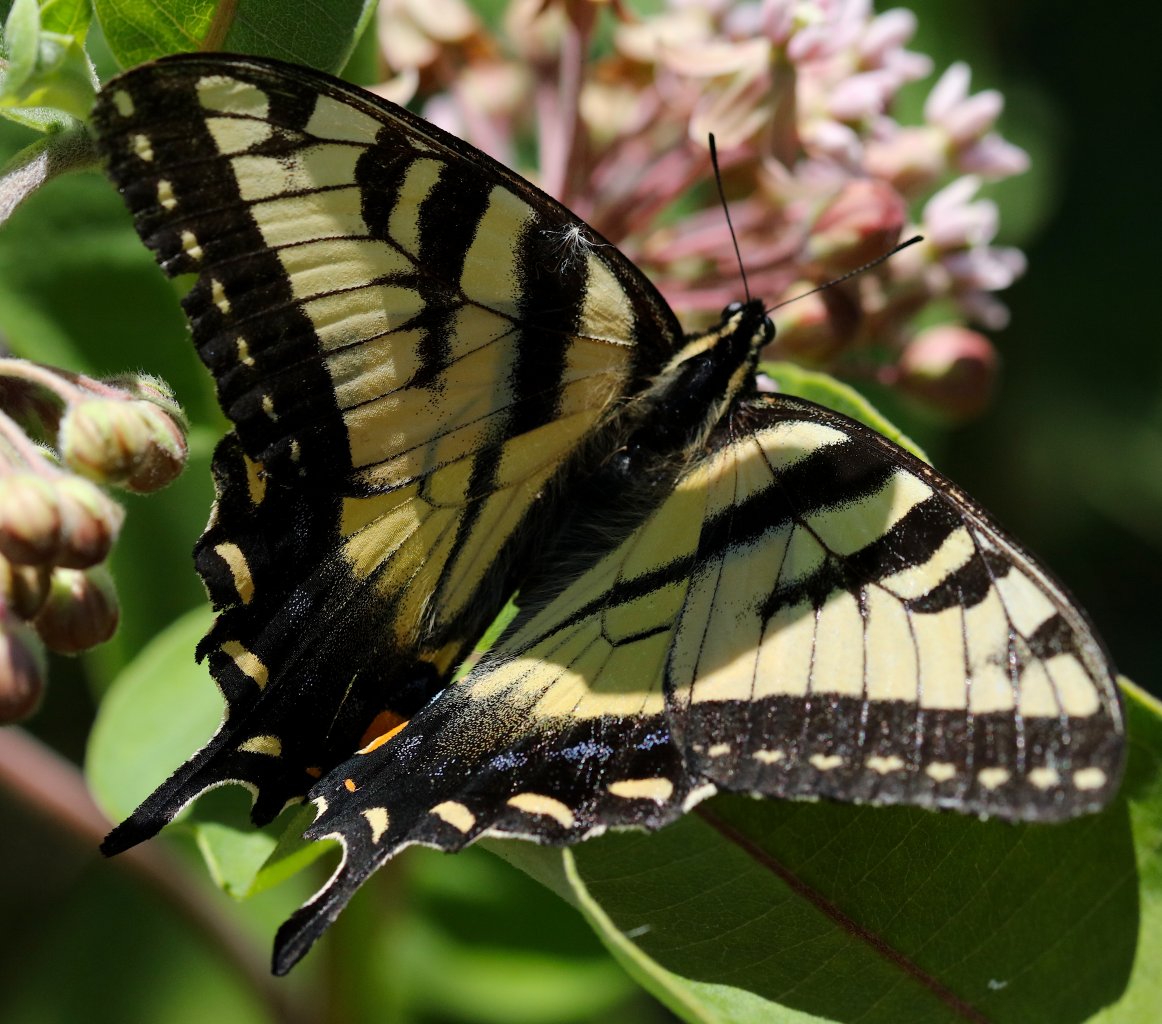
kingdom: Animalia
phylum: Arthropoda
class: Insecta
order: Lepidoptera
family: Papilionidae
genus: Pterourus
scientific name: Pterourus canadensis
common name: Canadian Tiger Swallowtail
